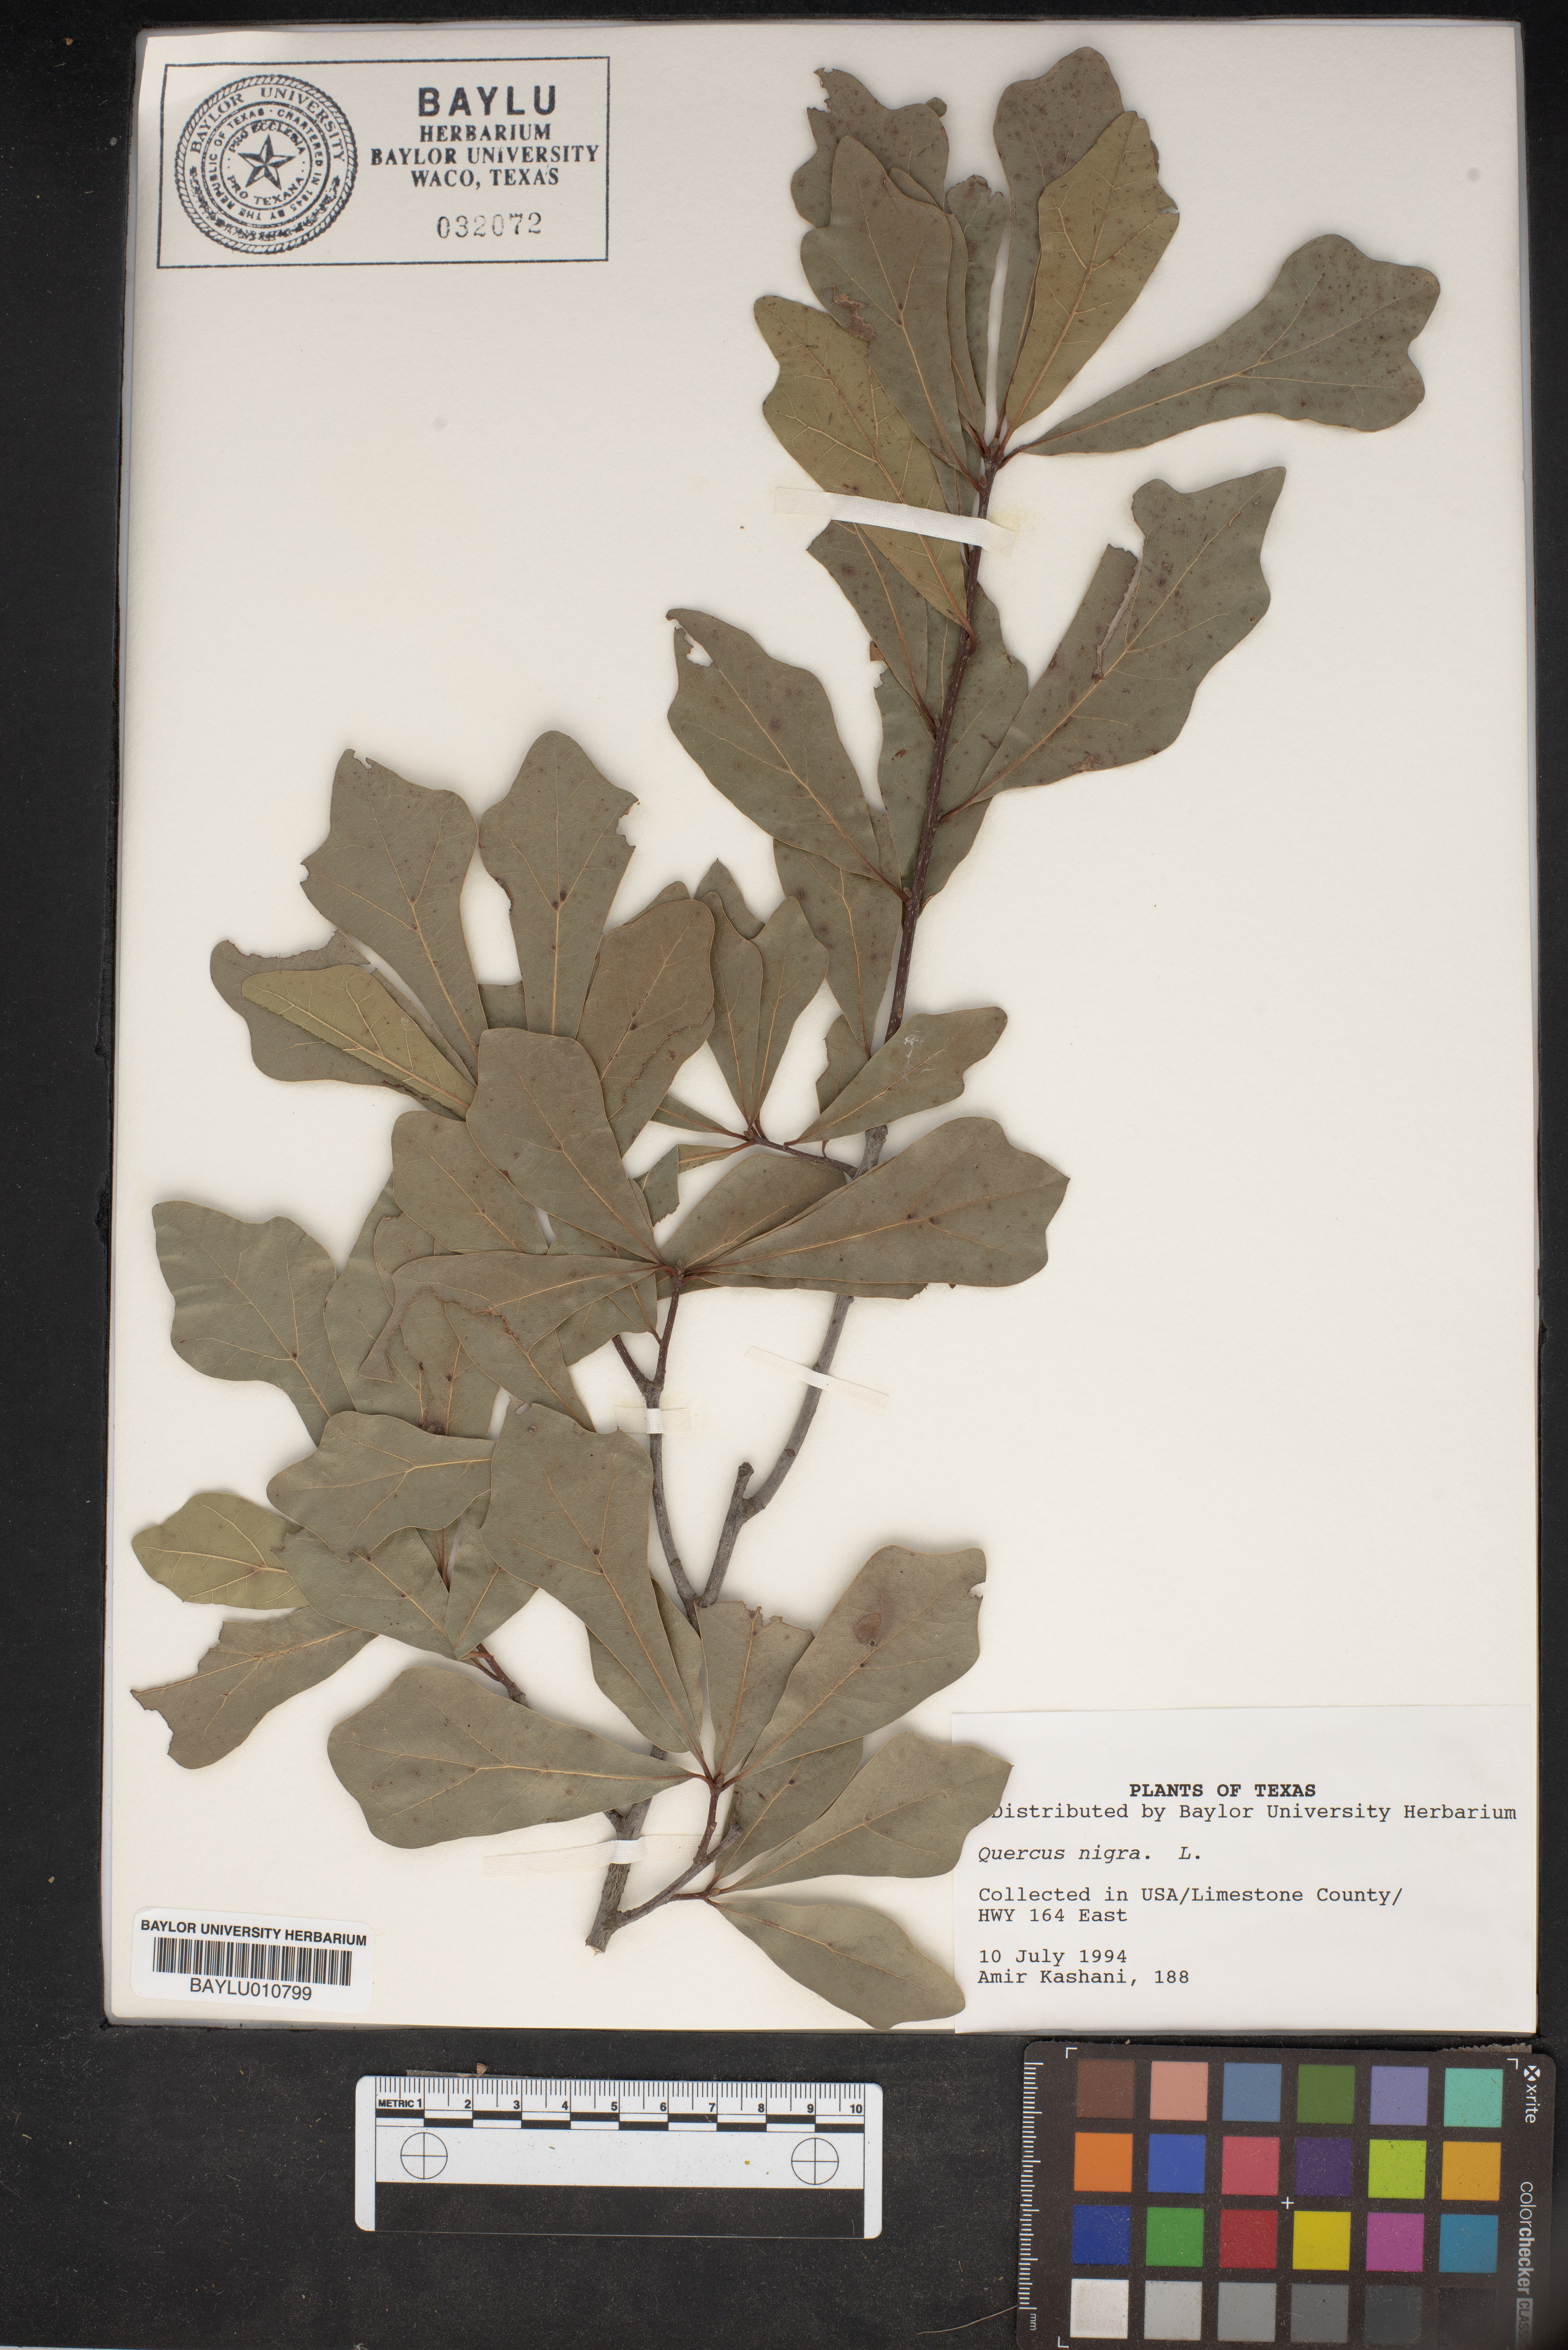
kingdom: Plantae
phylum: Tracheophyta
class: Magnoliopsida
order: Fagales
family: Fagaceae
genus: Quercus
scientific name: Quercus nigra
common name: Water oak
